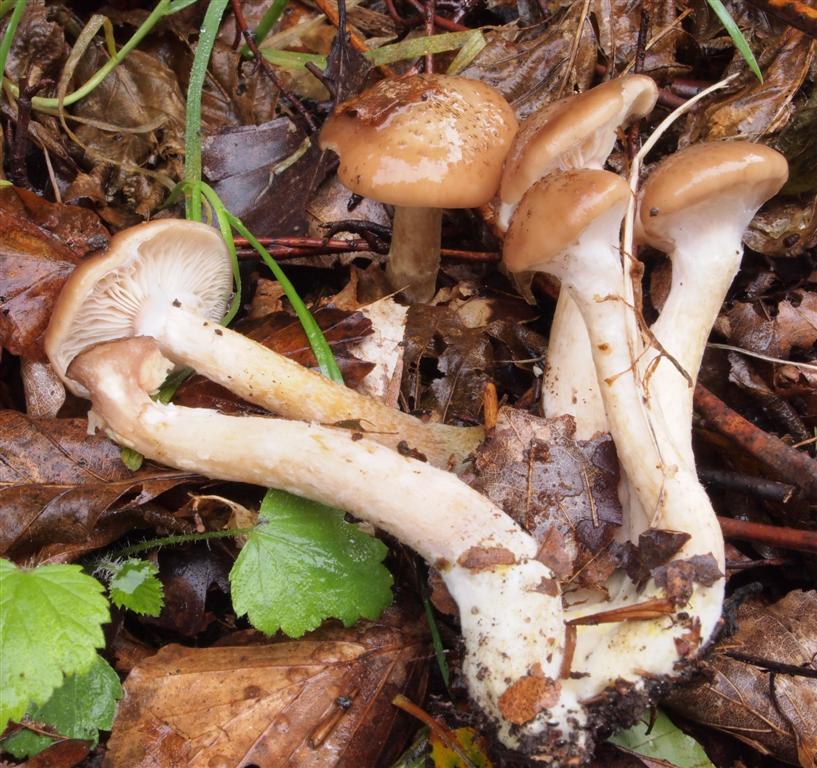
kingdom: Fungi
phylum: Basidiomycota
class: Agaricomycetes
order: Agaricales
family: Physalacriaceae
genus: Armillaria
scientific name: Armillaria lutea
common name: køllestokket honningsvamp
